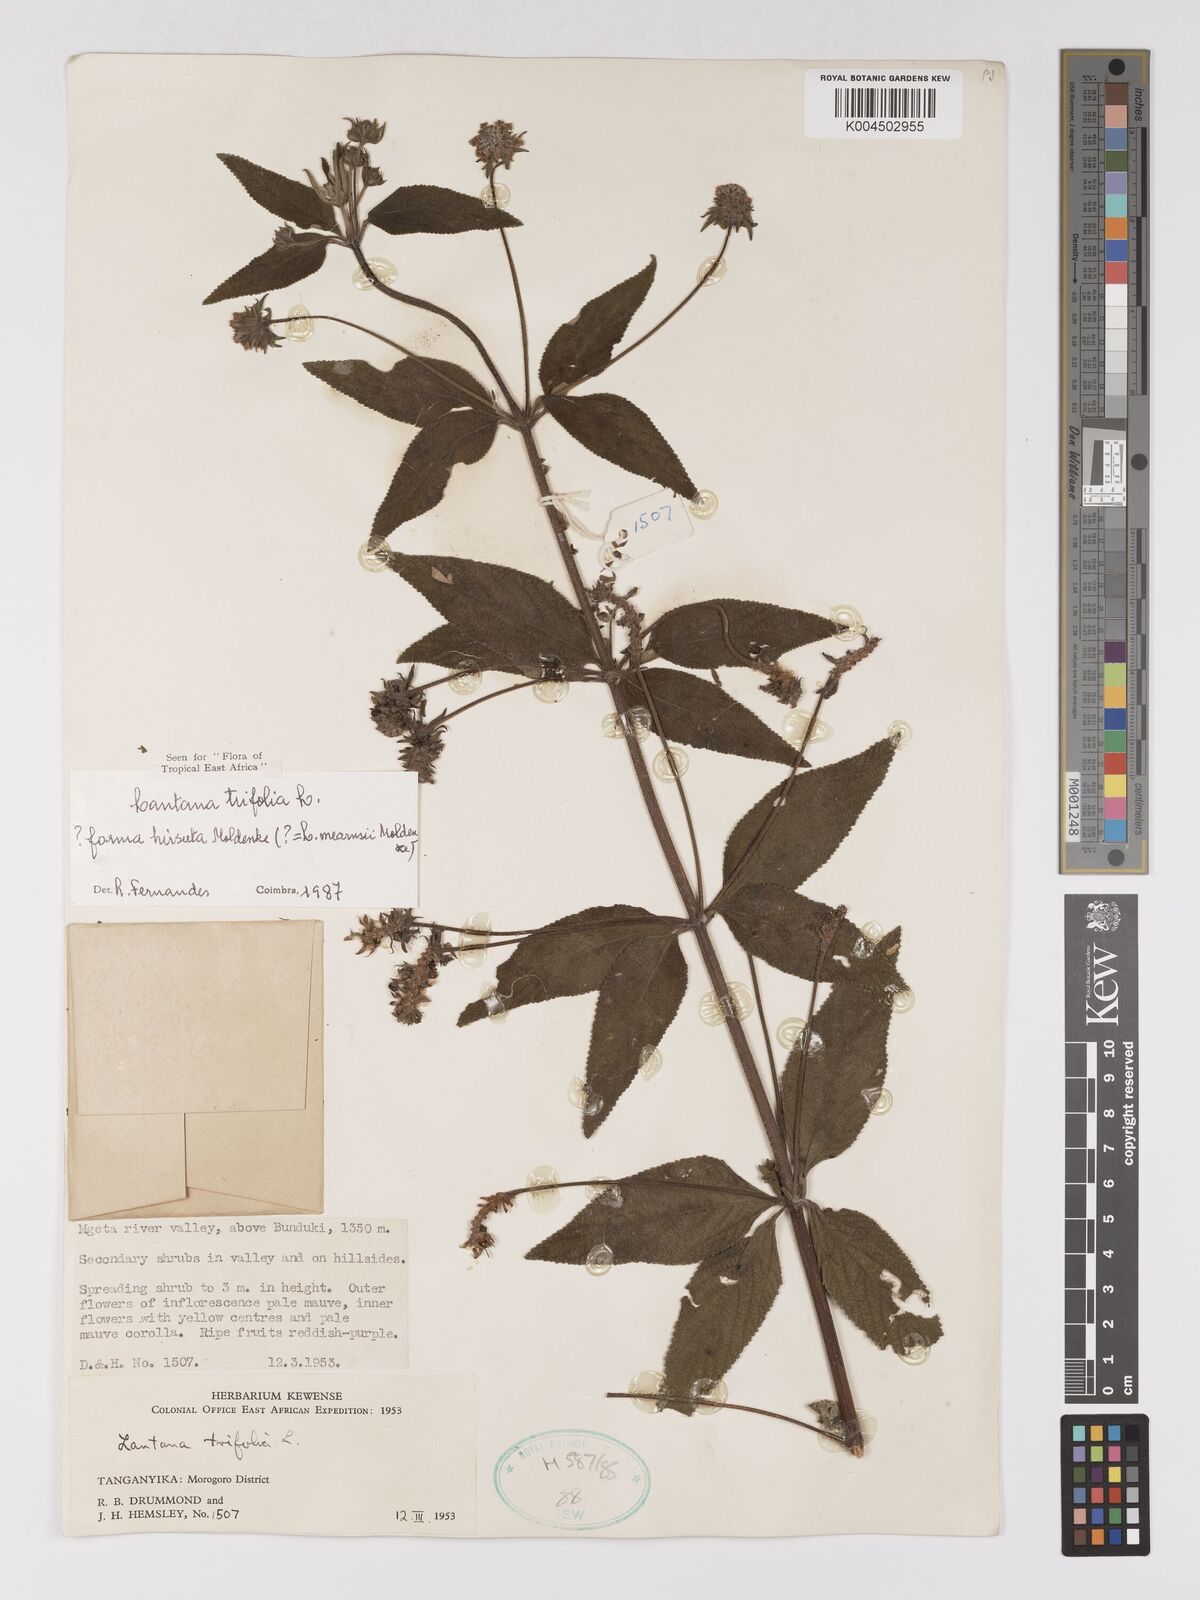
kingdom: Plantae
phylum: Tracheophyta
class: Magnoliopsida
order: Lamiales
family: Verbenaceae
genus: Lantana
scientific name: Lantana trifolia
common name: Sweet-sage
